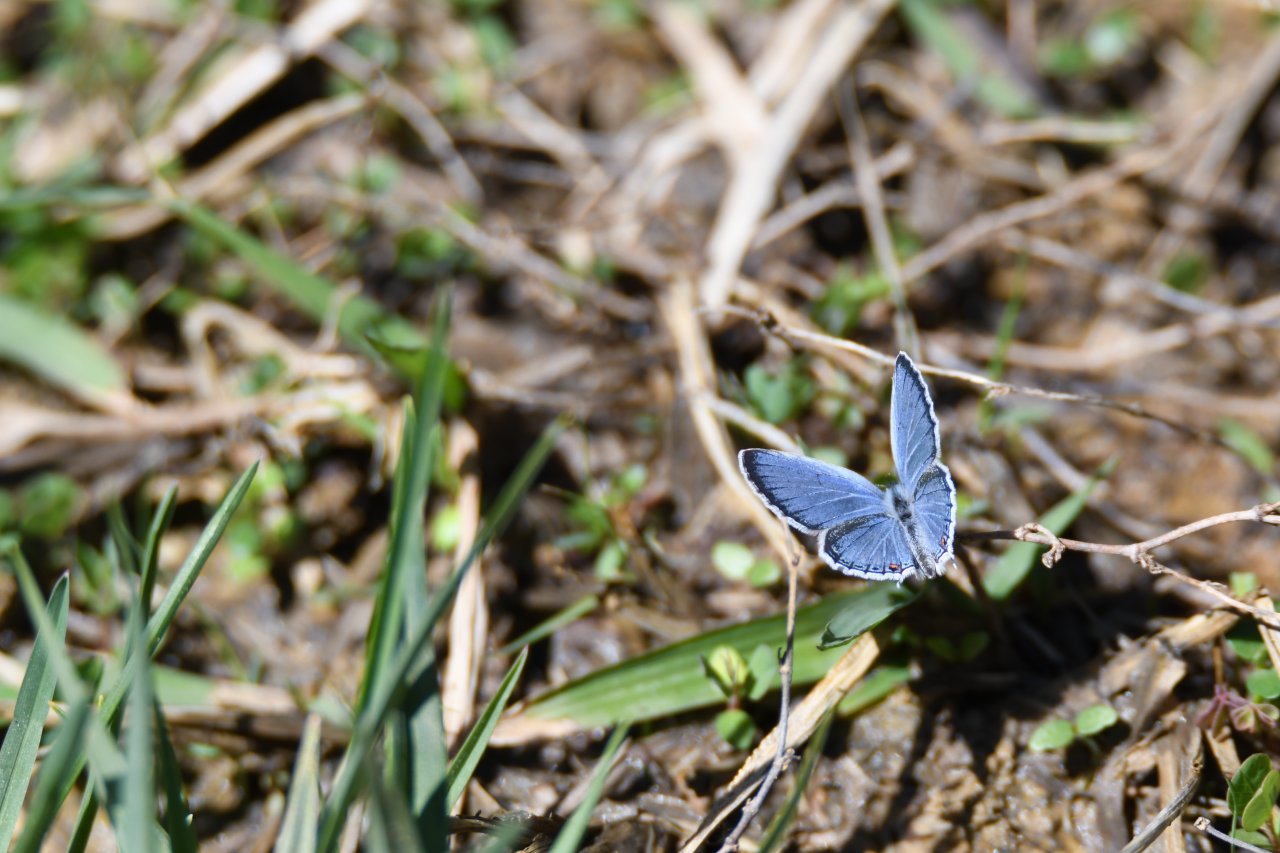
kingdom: Animalia
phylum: Arthropoda
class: Insecta
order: Lepidoptera
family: Lycaenidae
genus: Elkalyce
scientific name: Elkalyce comyntas
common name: Eastern Tailed-Blue
